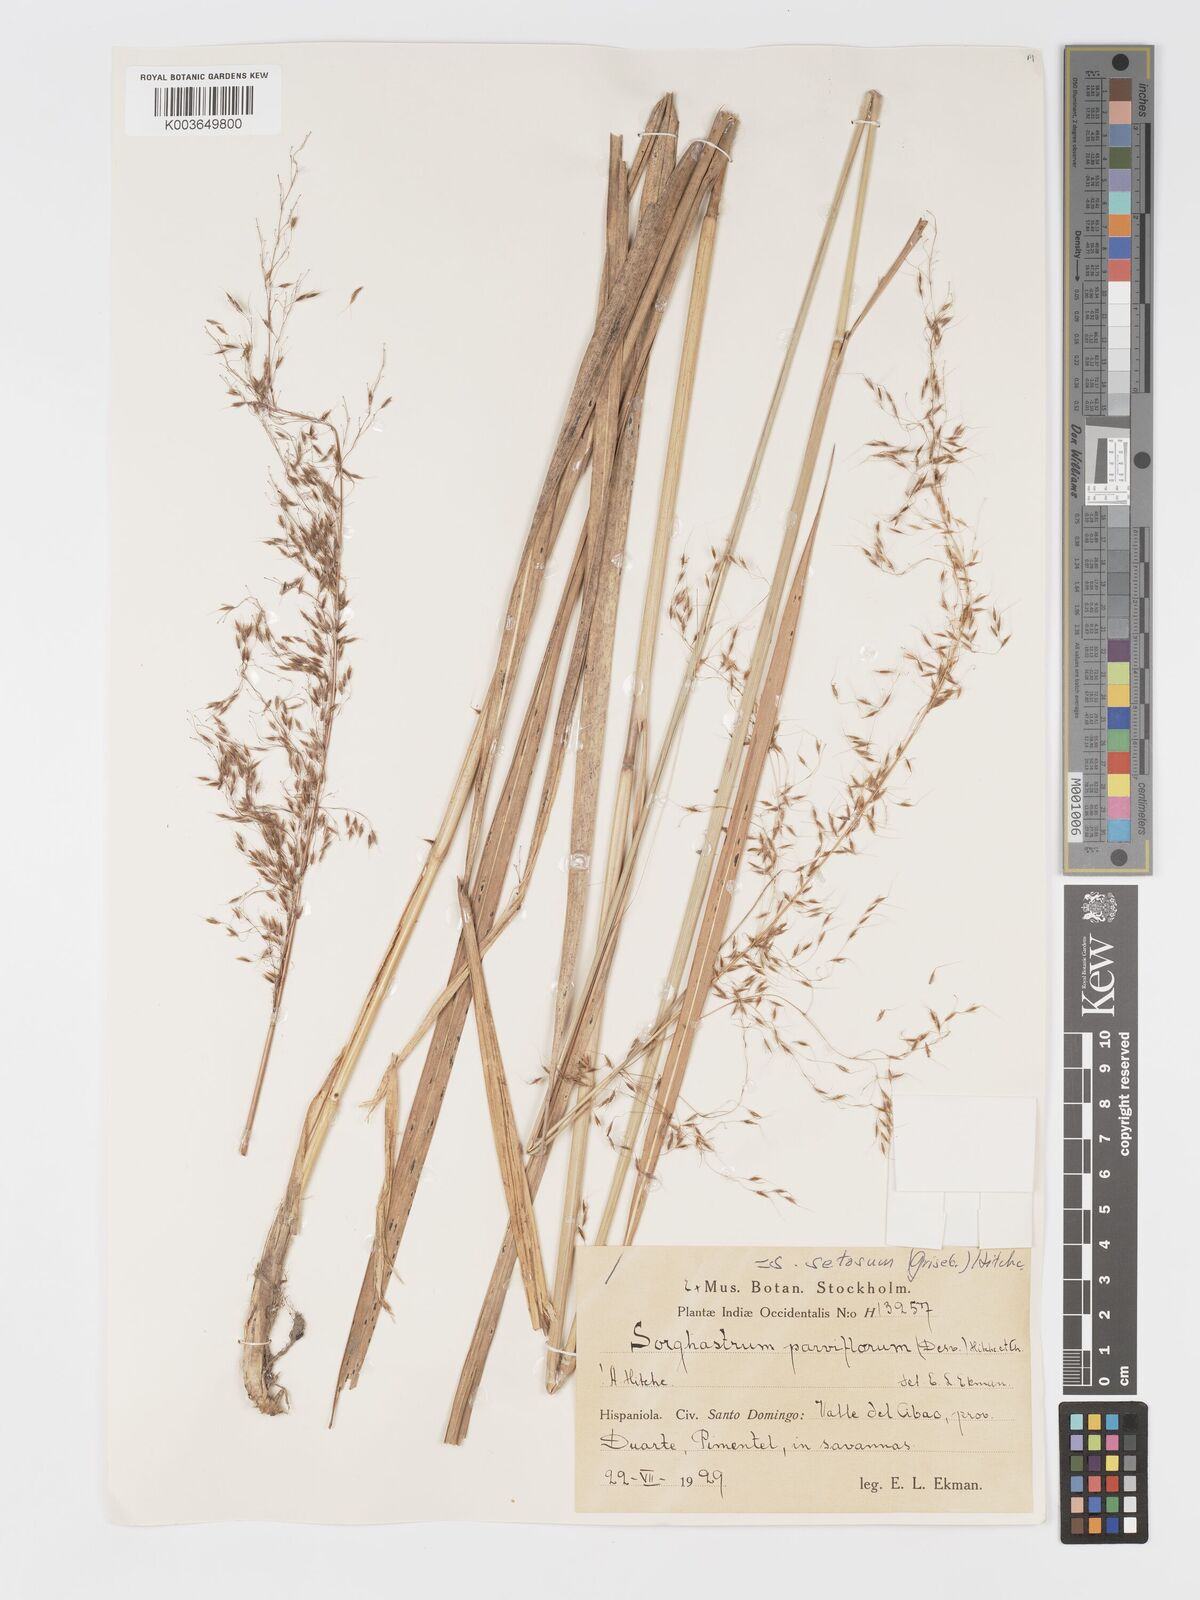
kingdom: Plantae
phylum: Tracheophyta
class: Liliopsida
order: Poales
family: Poaceae
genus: Sorghastrum
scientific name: Sorghastrum setosum
